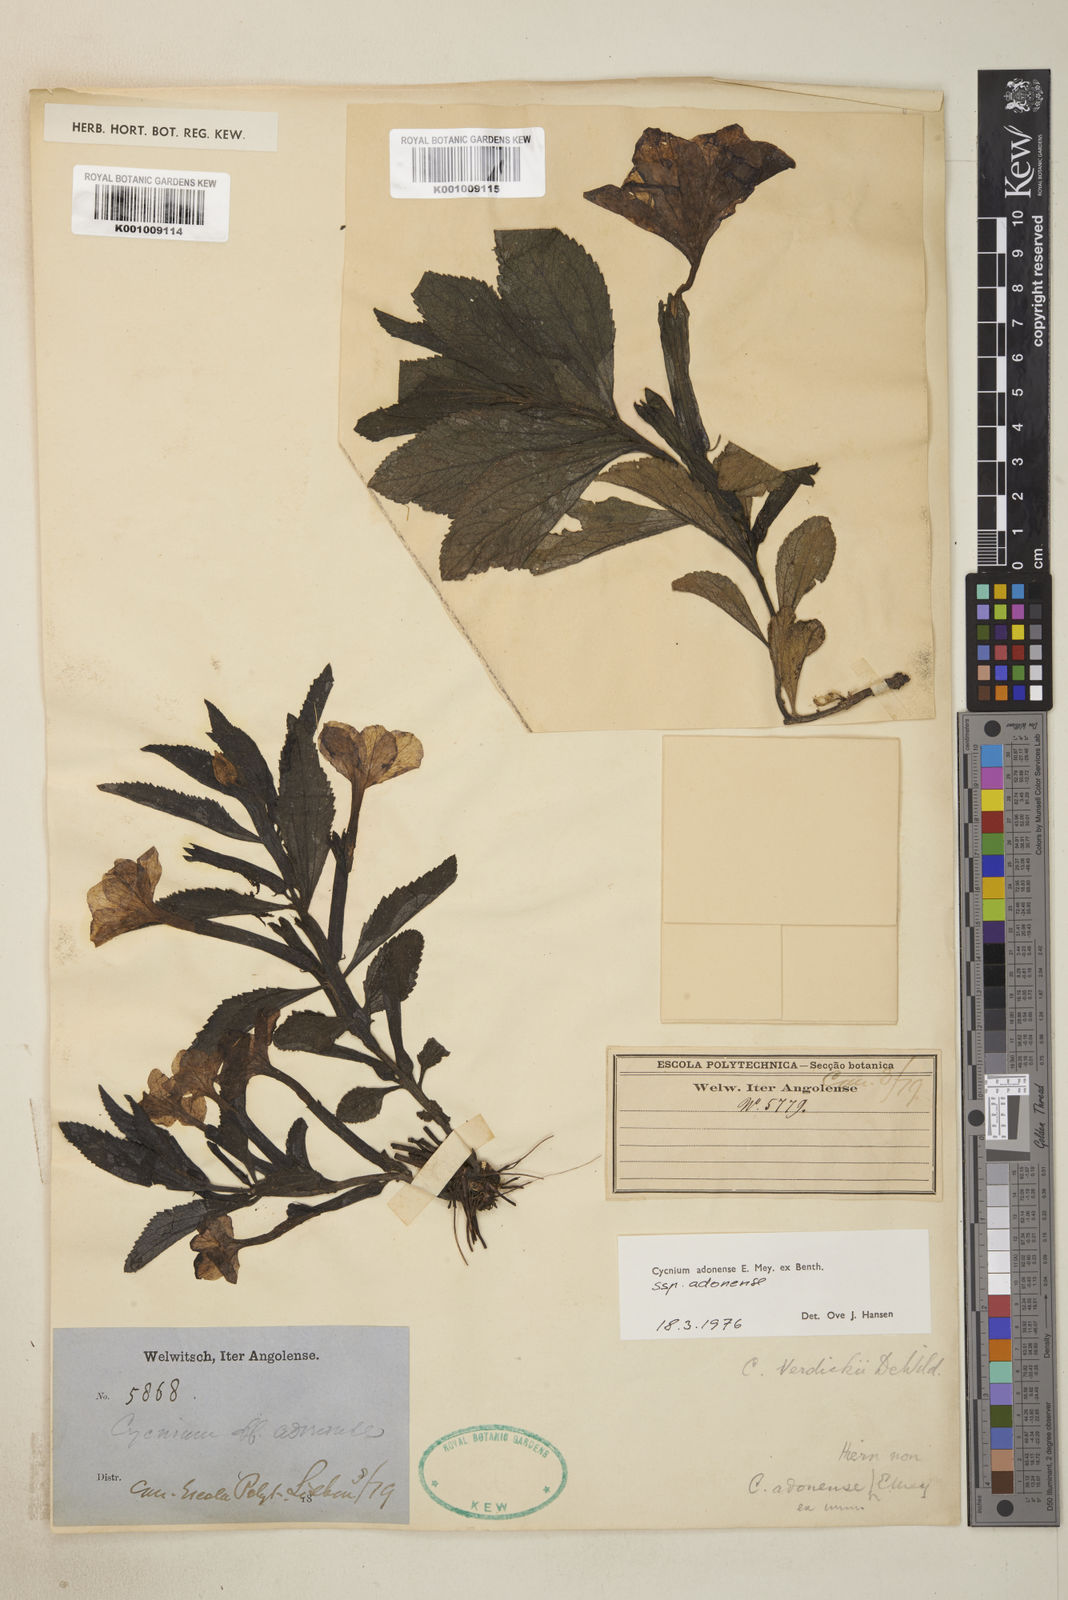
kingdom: Plantae
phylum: Tracheophyta
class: Magnoliopsida
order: Lamiales
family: Orobanchaceae
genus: Cycnium
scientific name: Cycnium adonense
